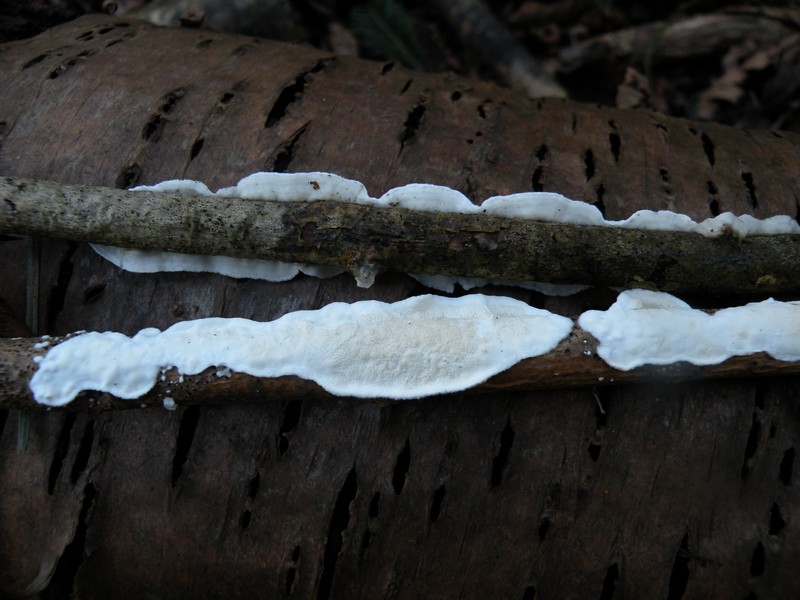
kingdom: Fungi
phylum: Basidiomycota
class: Agaricomycetes
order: Polyporales
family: Irpicaceae
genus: Byssomerulius
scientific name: Byssomerulius corium
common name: læder-åresvamp
